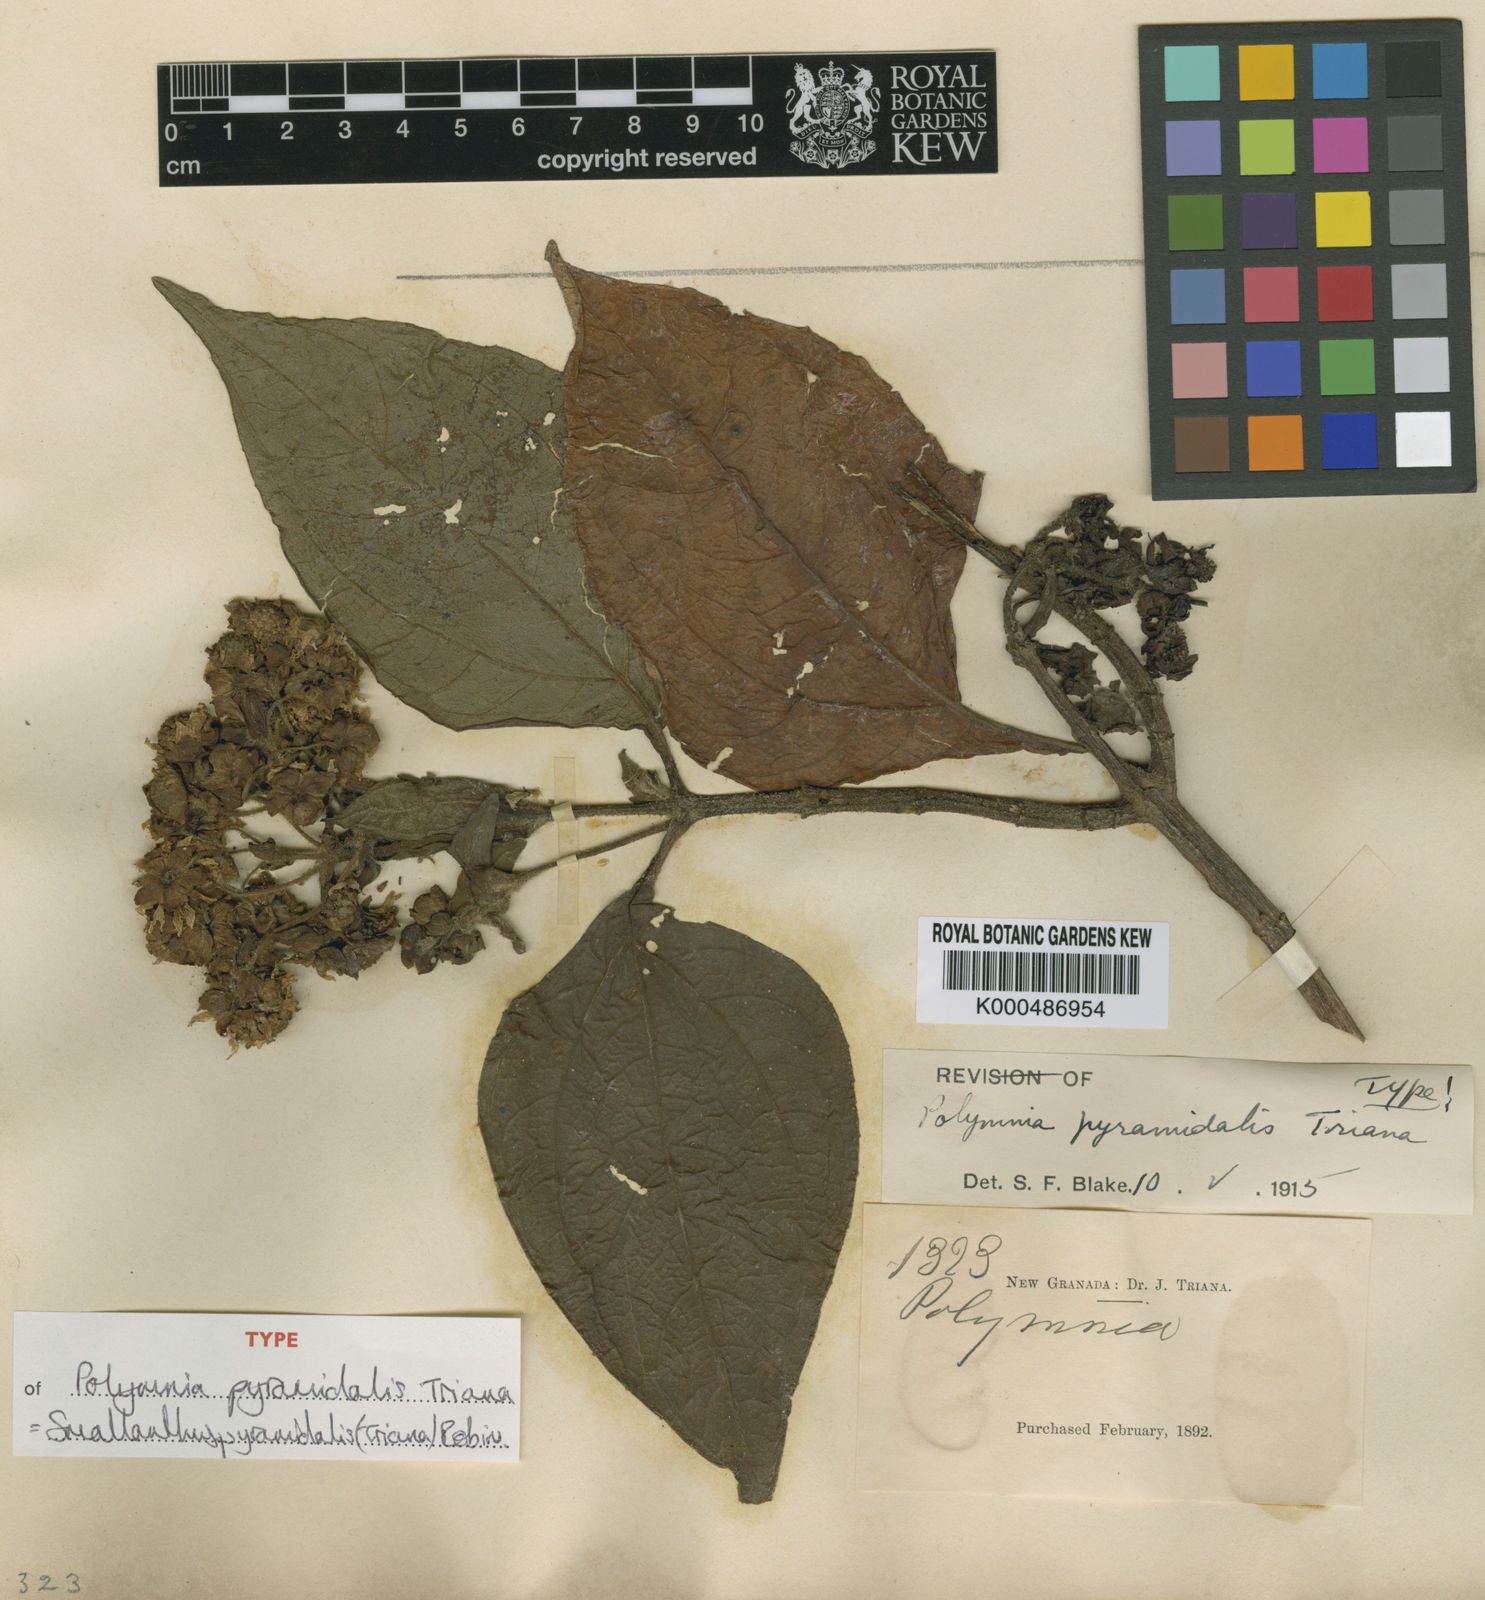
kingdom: Plantae
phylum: Tracheophyta
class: Magnoliopsida
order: Asterales
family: Asteraceae
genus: Smallanthus
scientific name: Smallanthus pyramidalis
